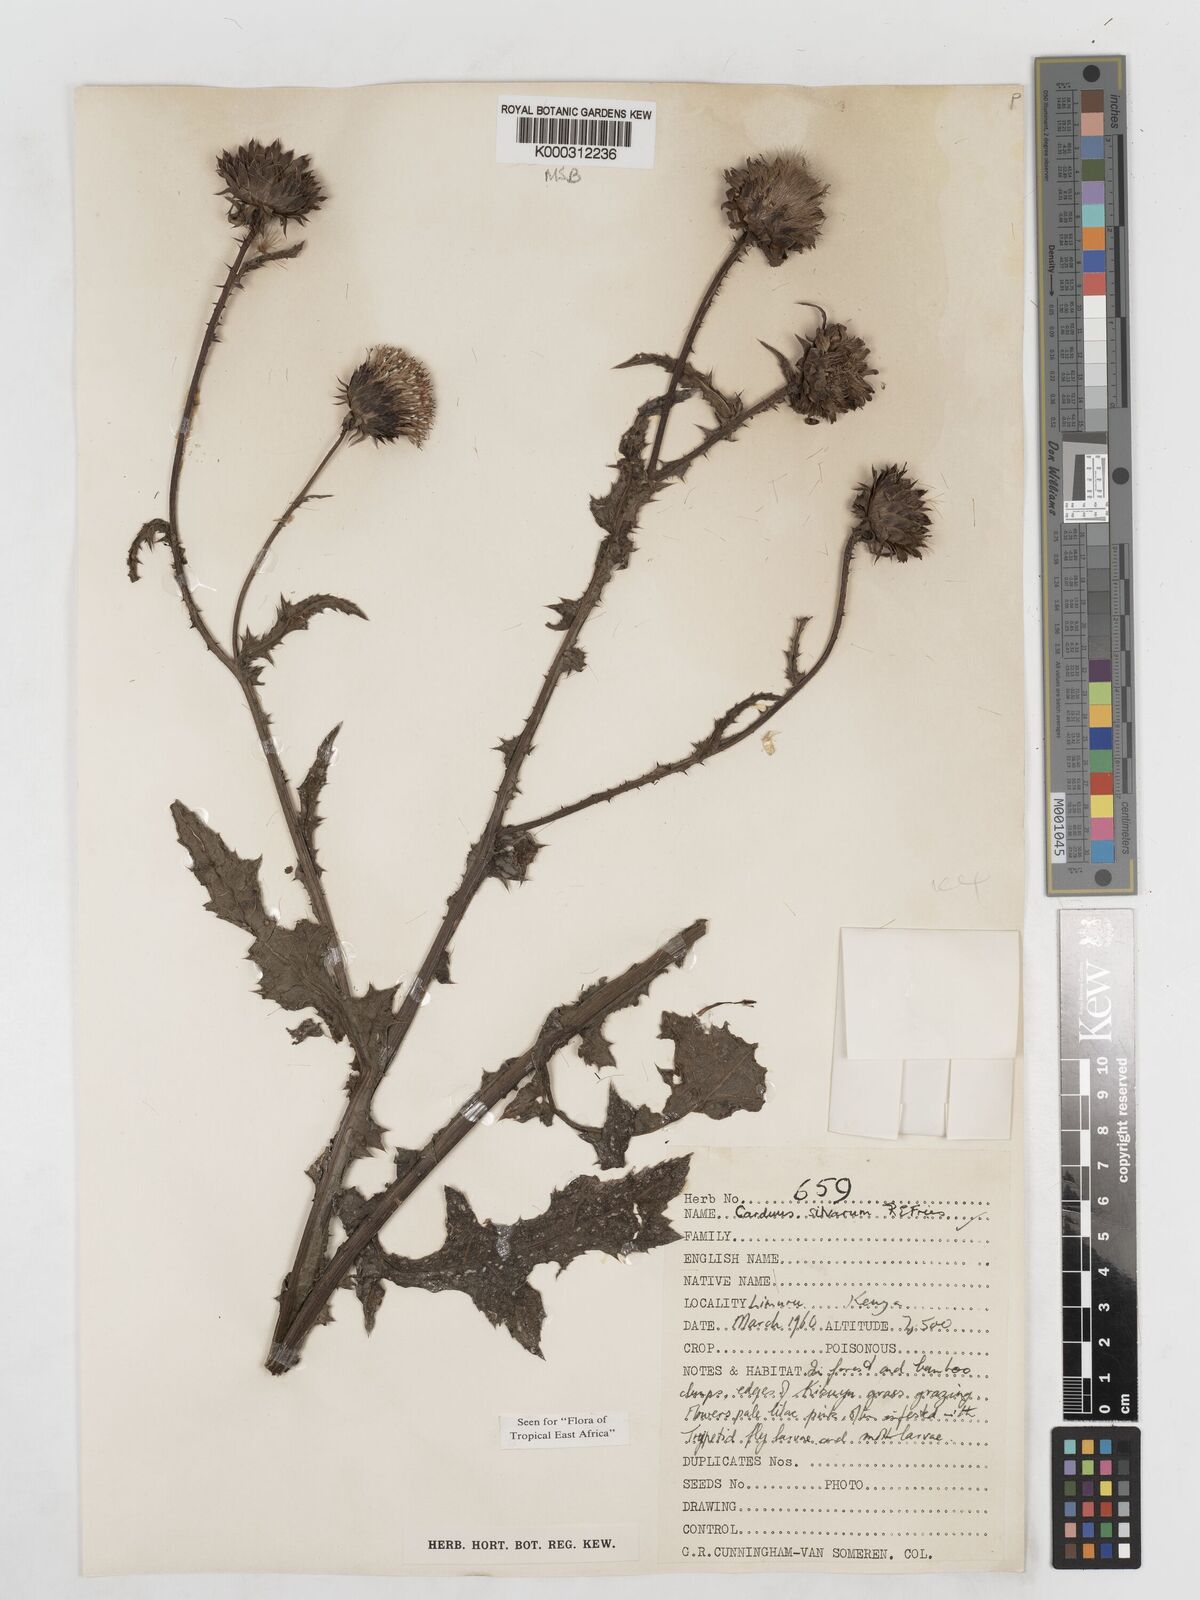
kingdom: Plantae
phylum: Tracheophyta
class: Magnoliopsida
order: Asterales
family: Asteraceae
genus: Carduus
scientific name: Carduus silvarum
